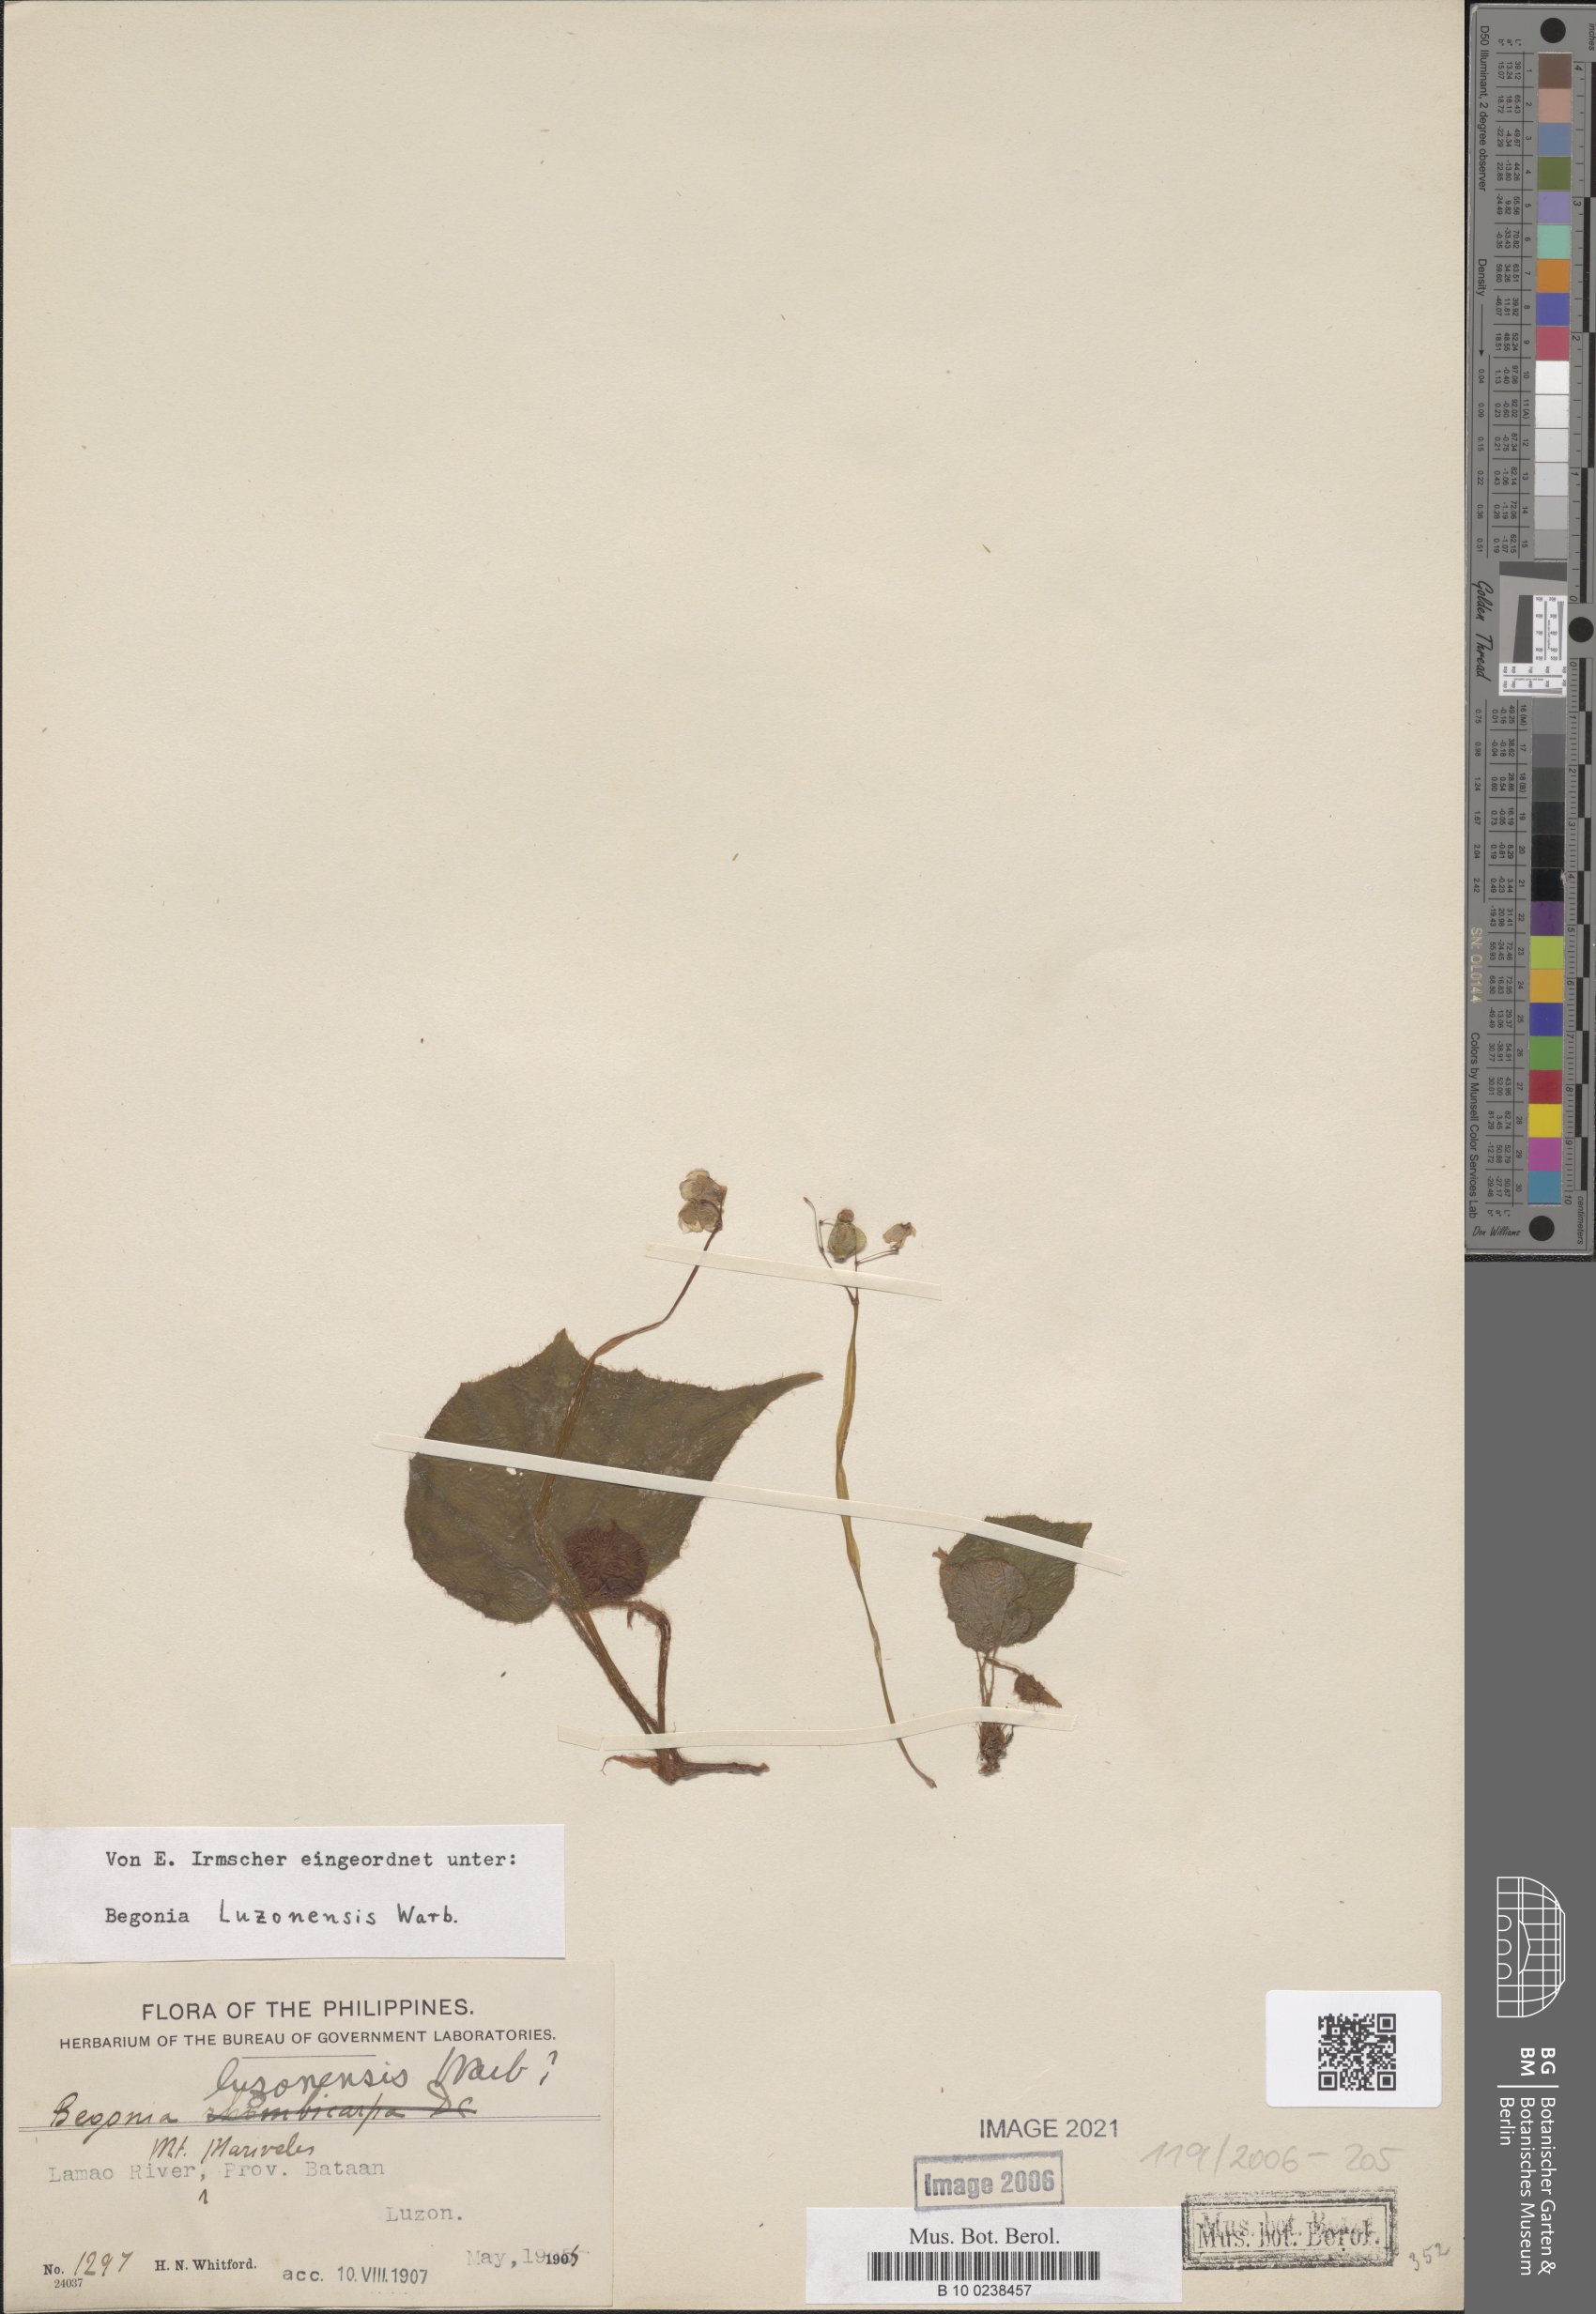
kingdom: Plantae
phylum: Tracheophyta
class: Magnoliopsida
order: Cucurbitales
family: Begoniaceae
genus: Begonia
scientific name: Begonia luzonensis
